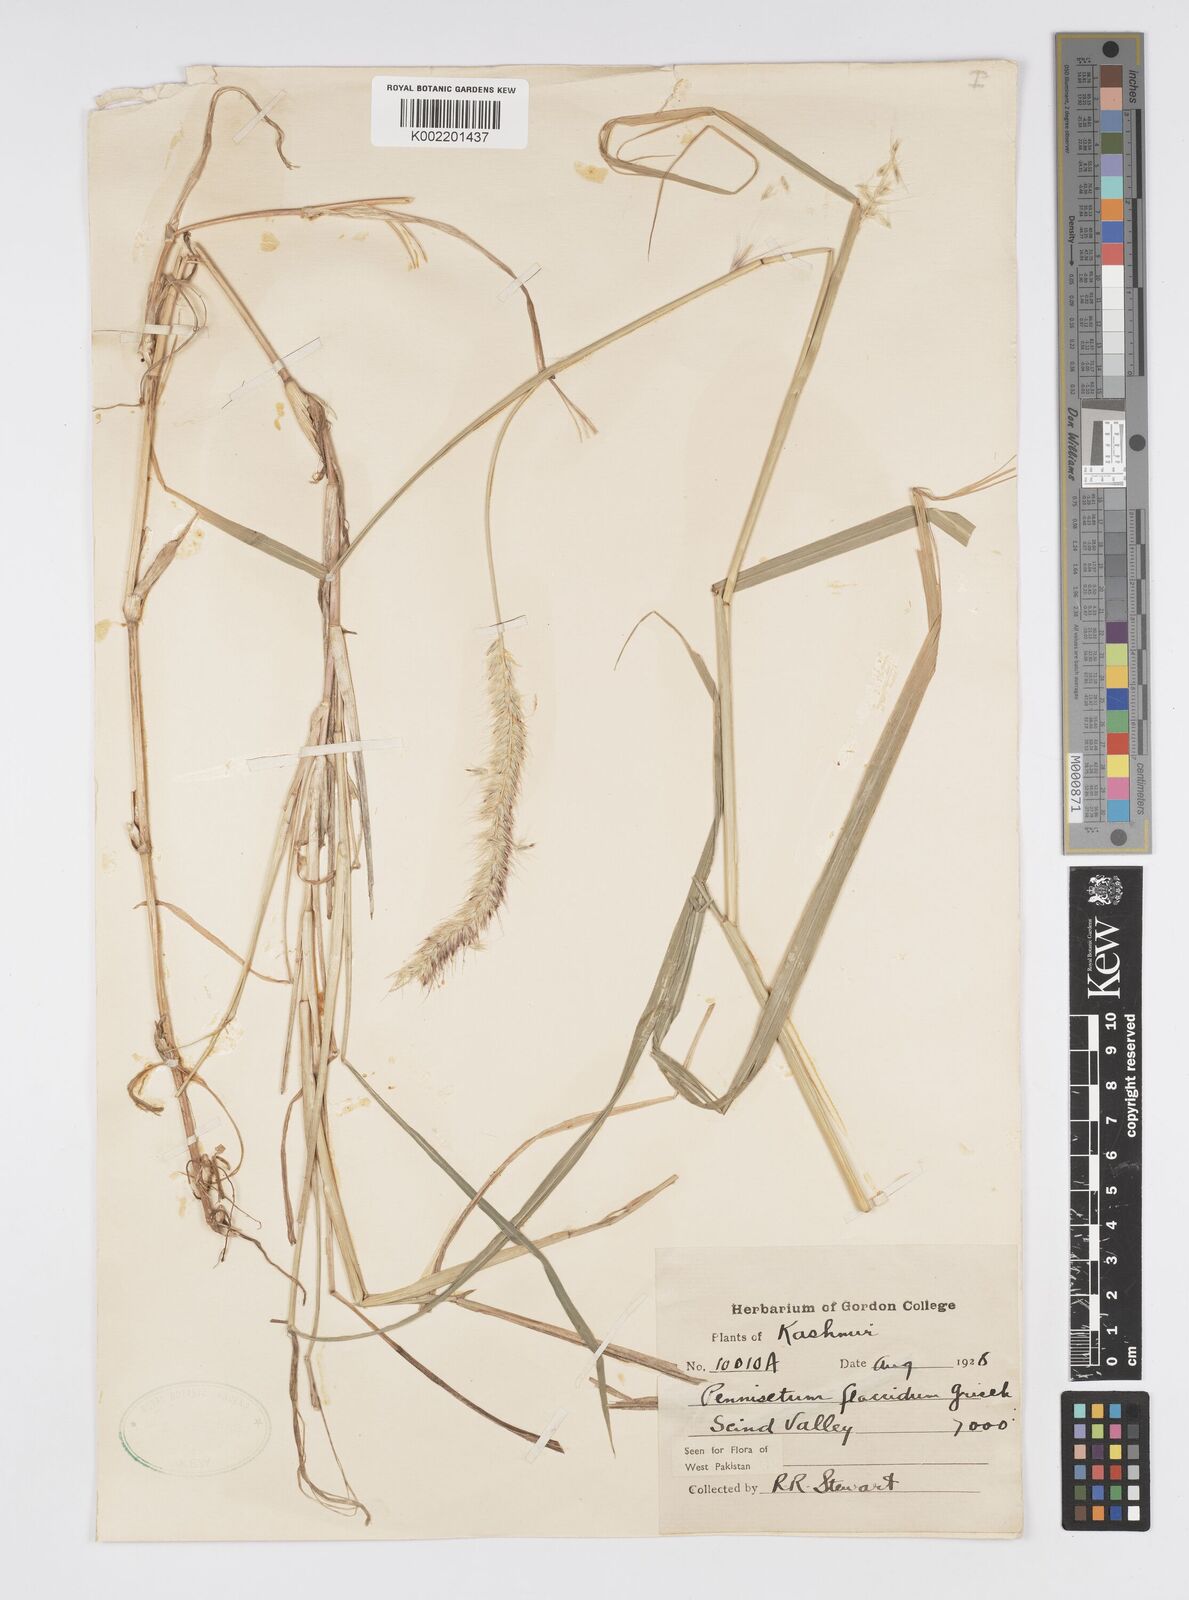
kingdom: Plantae
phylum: Tracheophyta
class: Liliopsida
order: Poales
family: Poaceae
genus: Cenchrus
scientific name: Cenchrus flaccidus
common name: Flaccid grass
